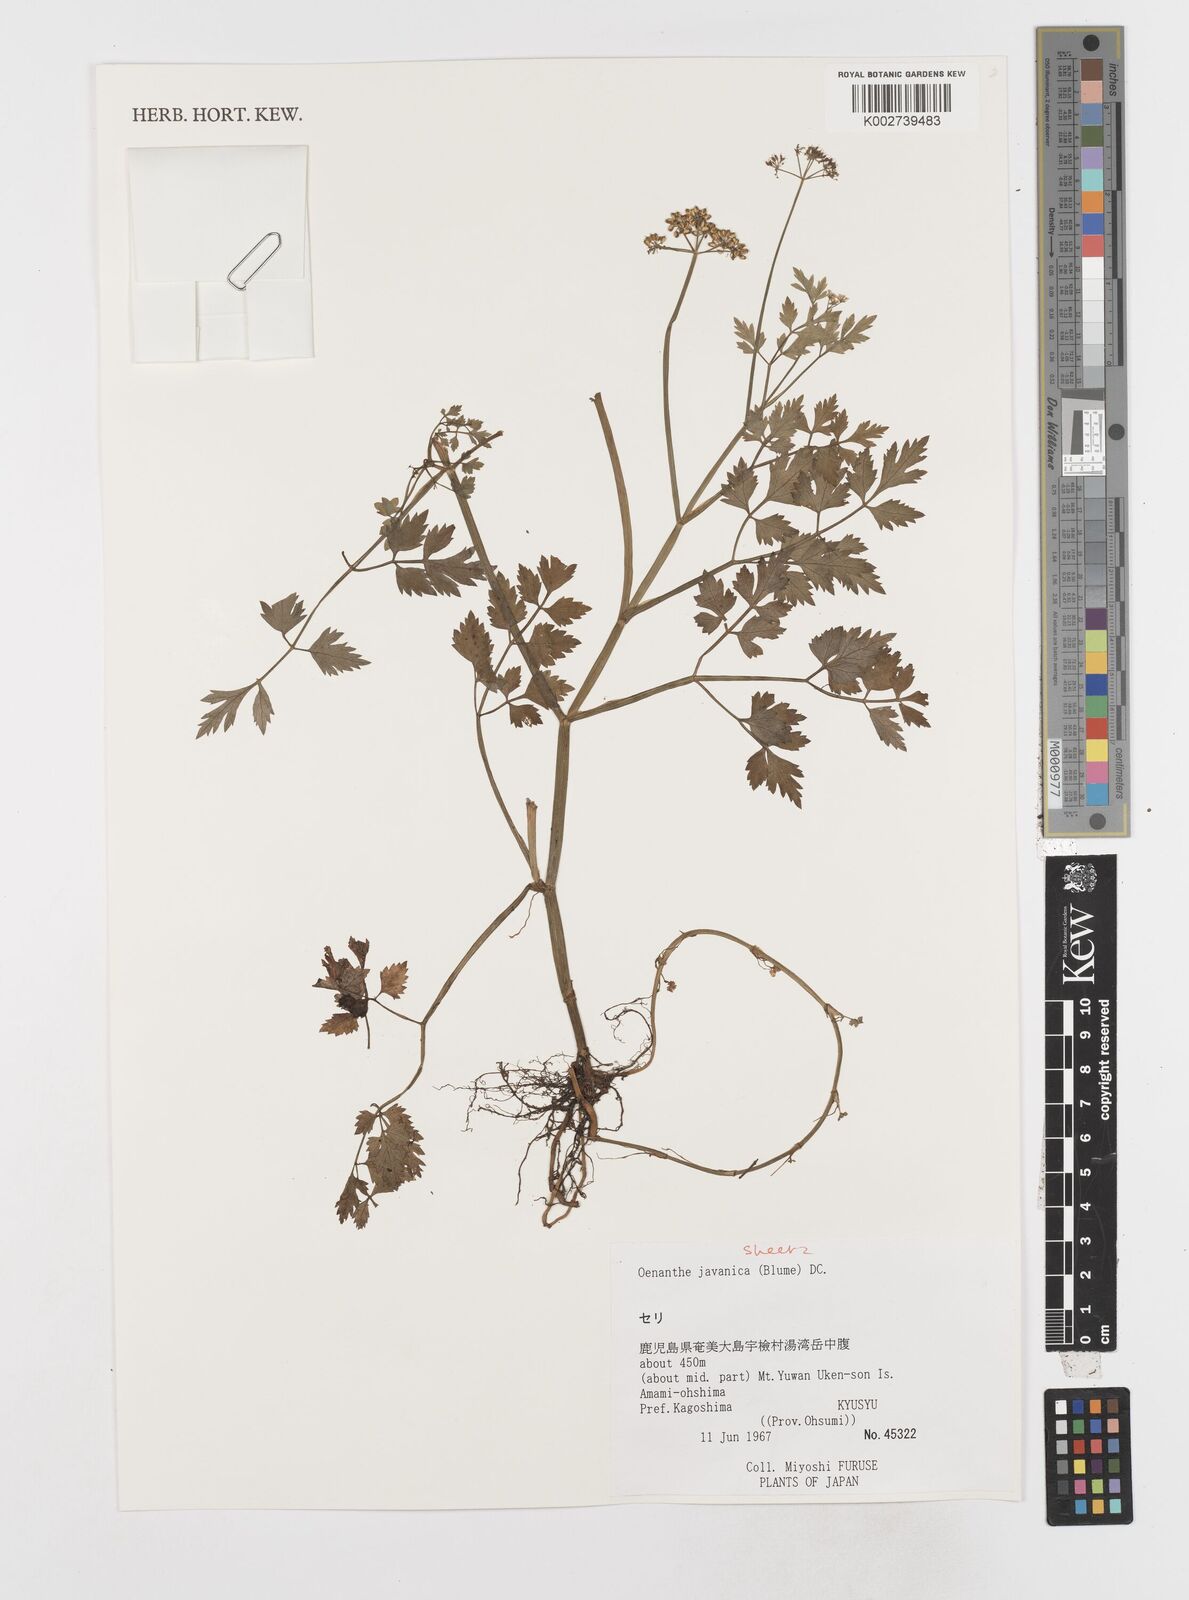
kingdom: Plantae
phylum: Tracheophyta
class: Magnoliopsida
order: Apiales
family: Apiaceae
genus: Oenanthe
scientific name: Oenanthe javanica
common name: Java water-dropwort
